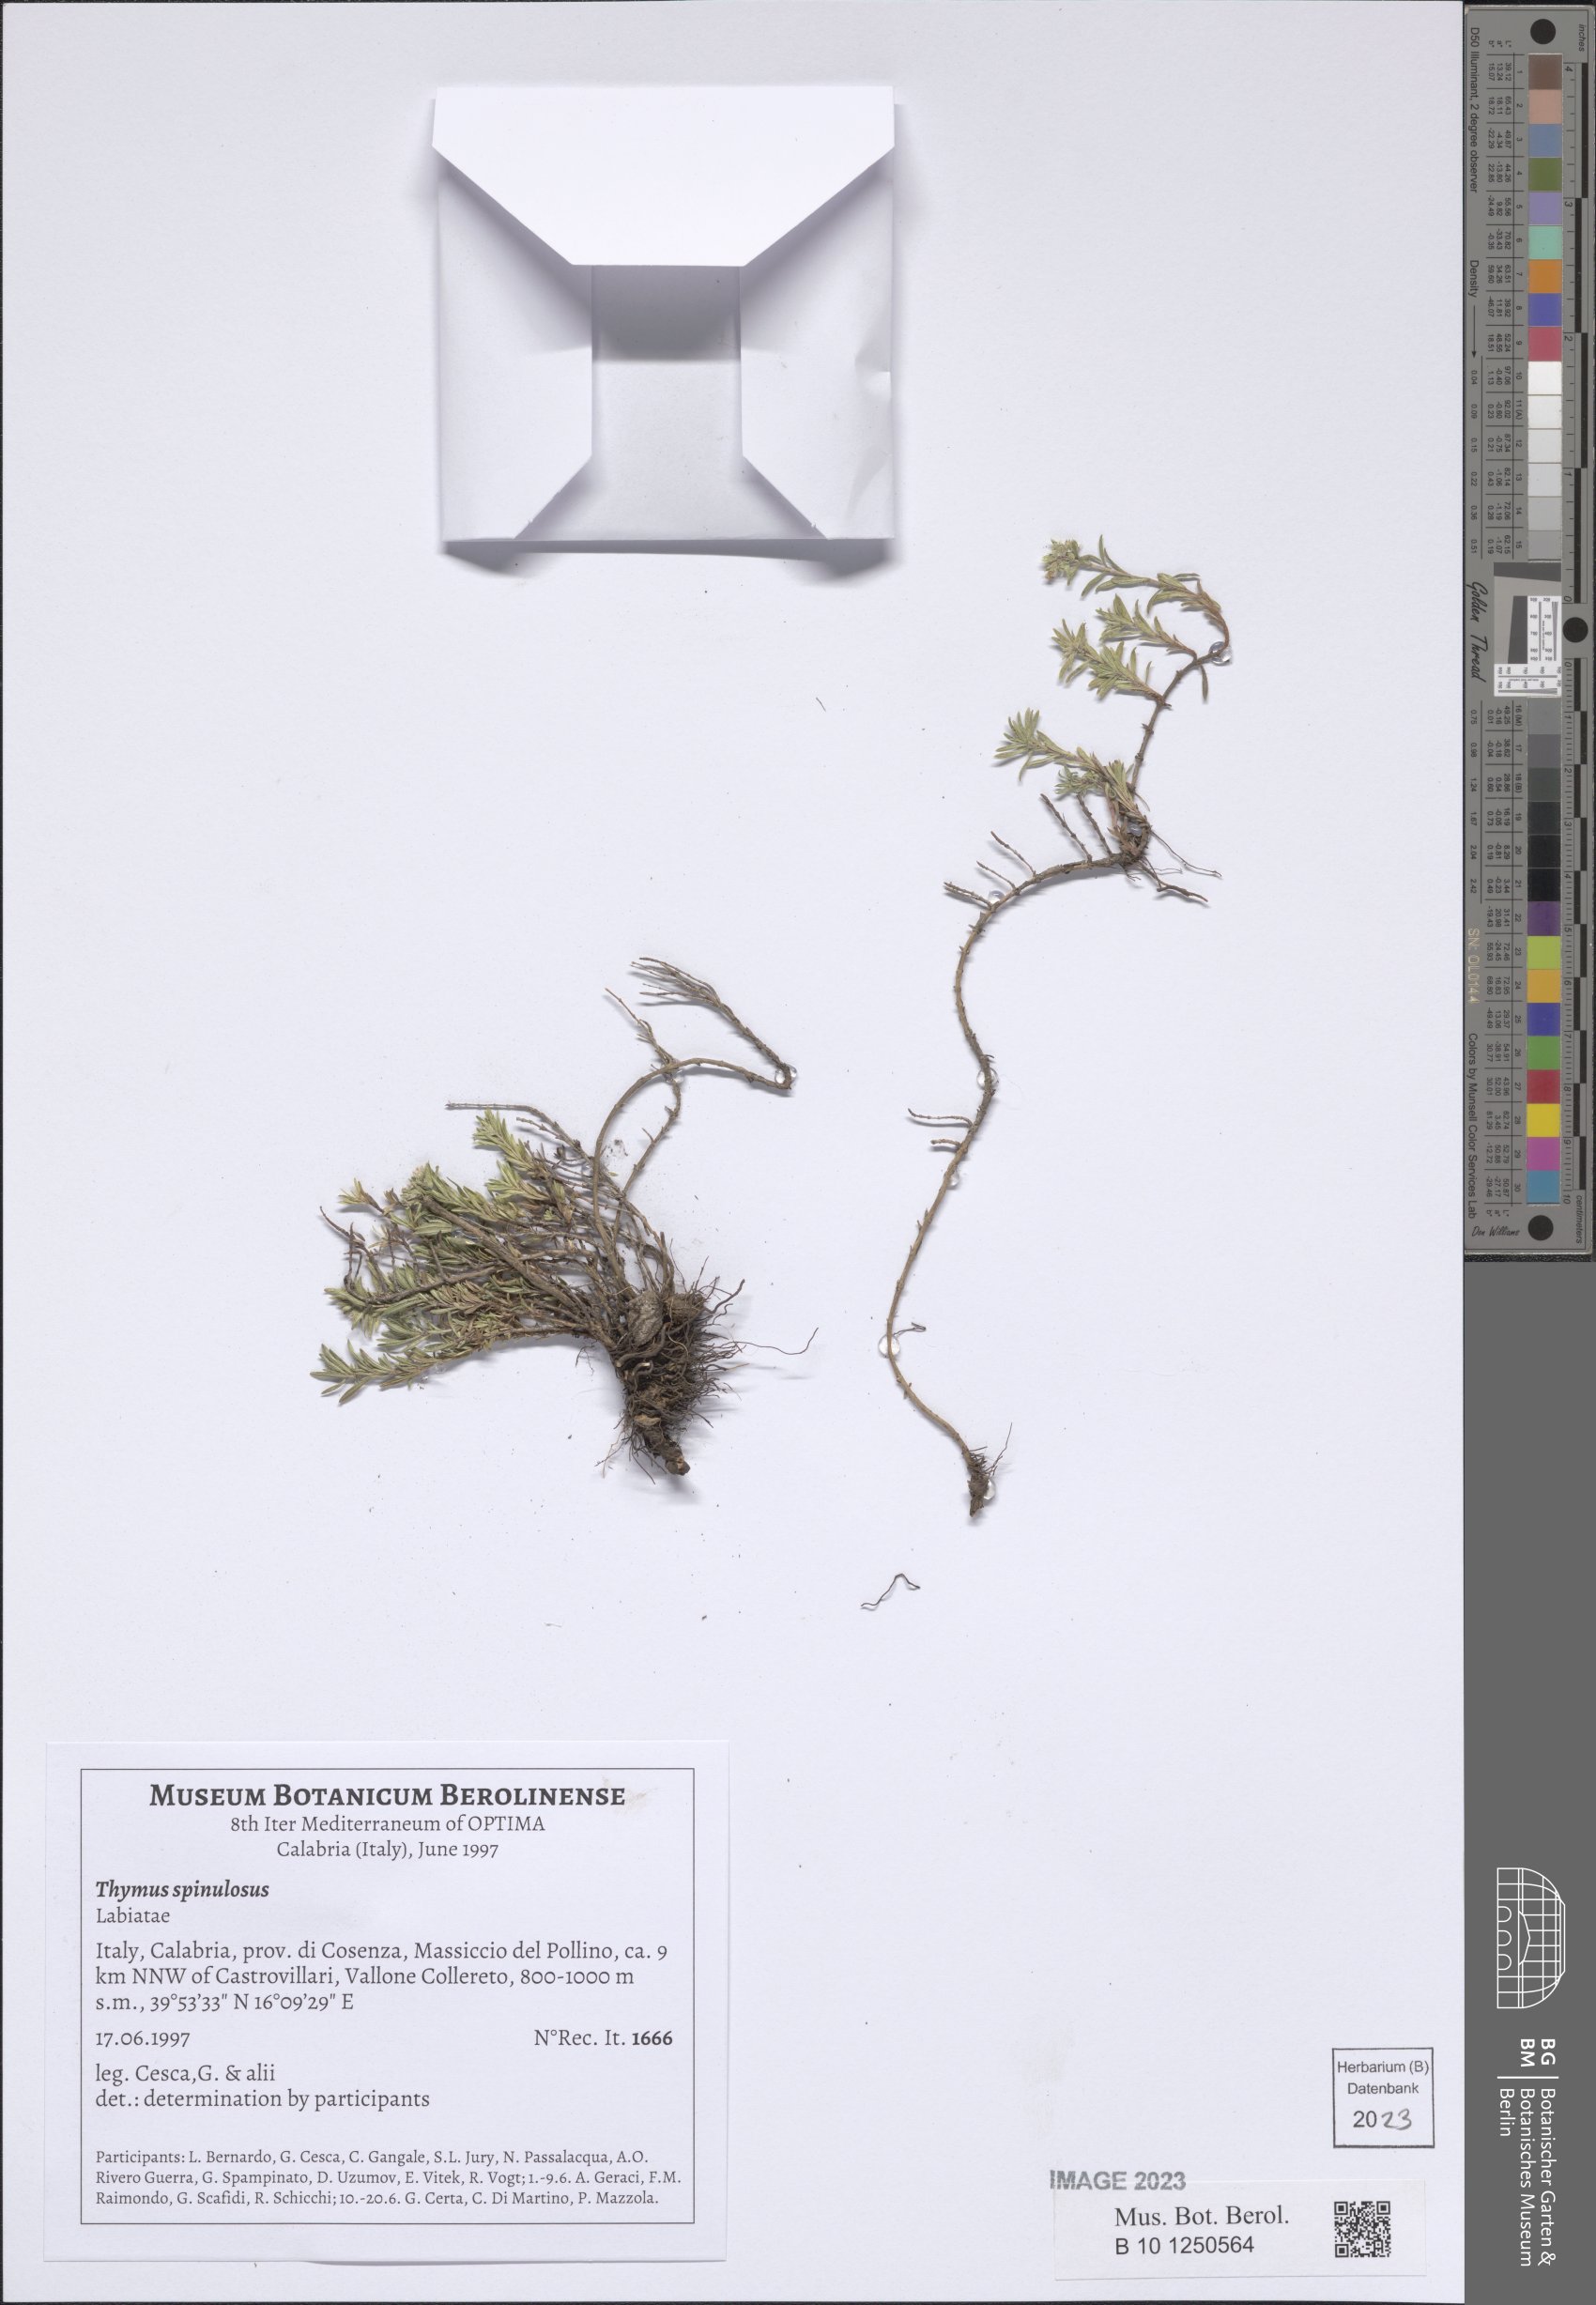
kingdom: Plantae
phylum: Tracheophyta
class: Magnoliopsida
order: Lamiales
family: Lamiaceae
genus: Thymus
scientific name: Thymus spinulosus
